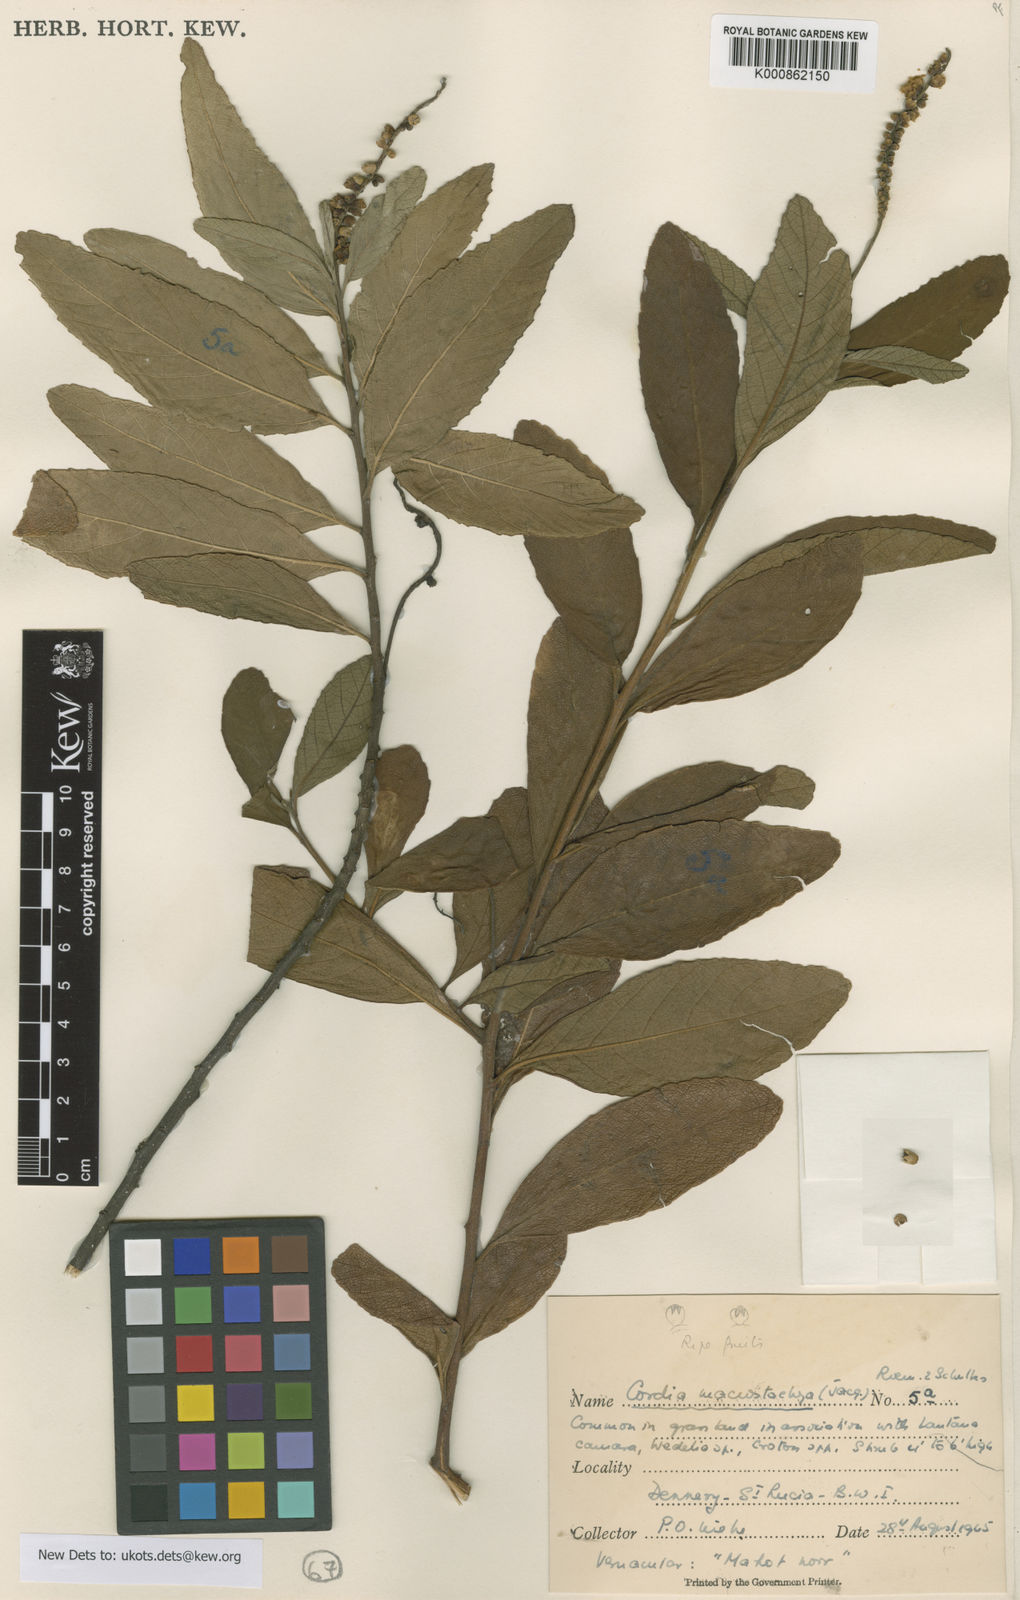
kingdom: Plantae
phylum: Tracheophyta
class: Magnoliopsida
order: Boraginales
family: Cordiaceae
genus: Varronia
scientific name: Varronia cylindristachya
